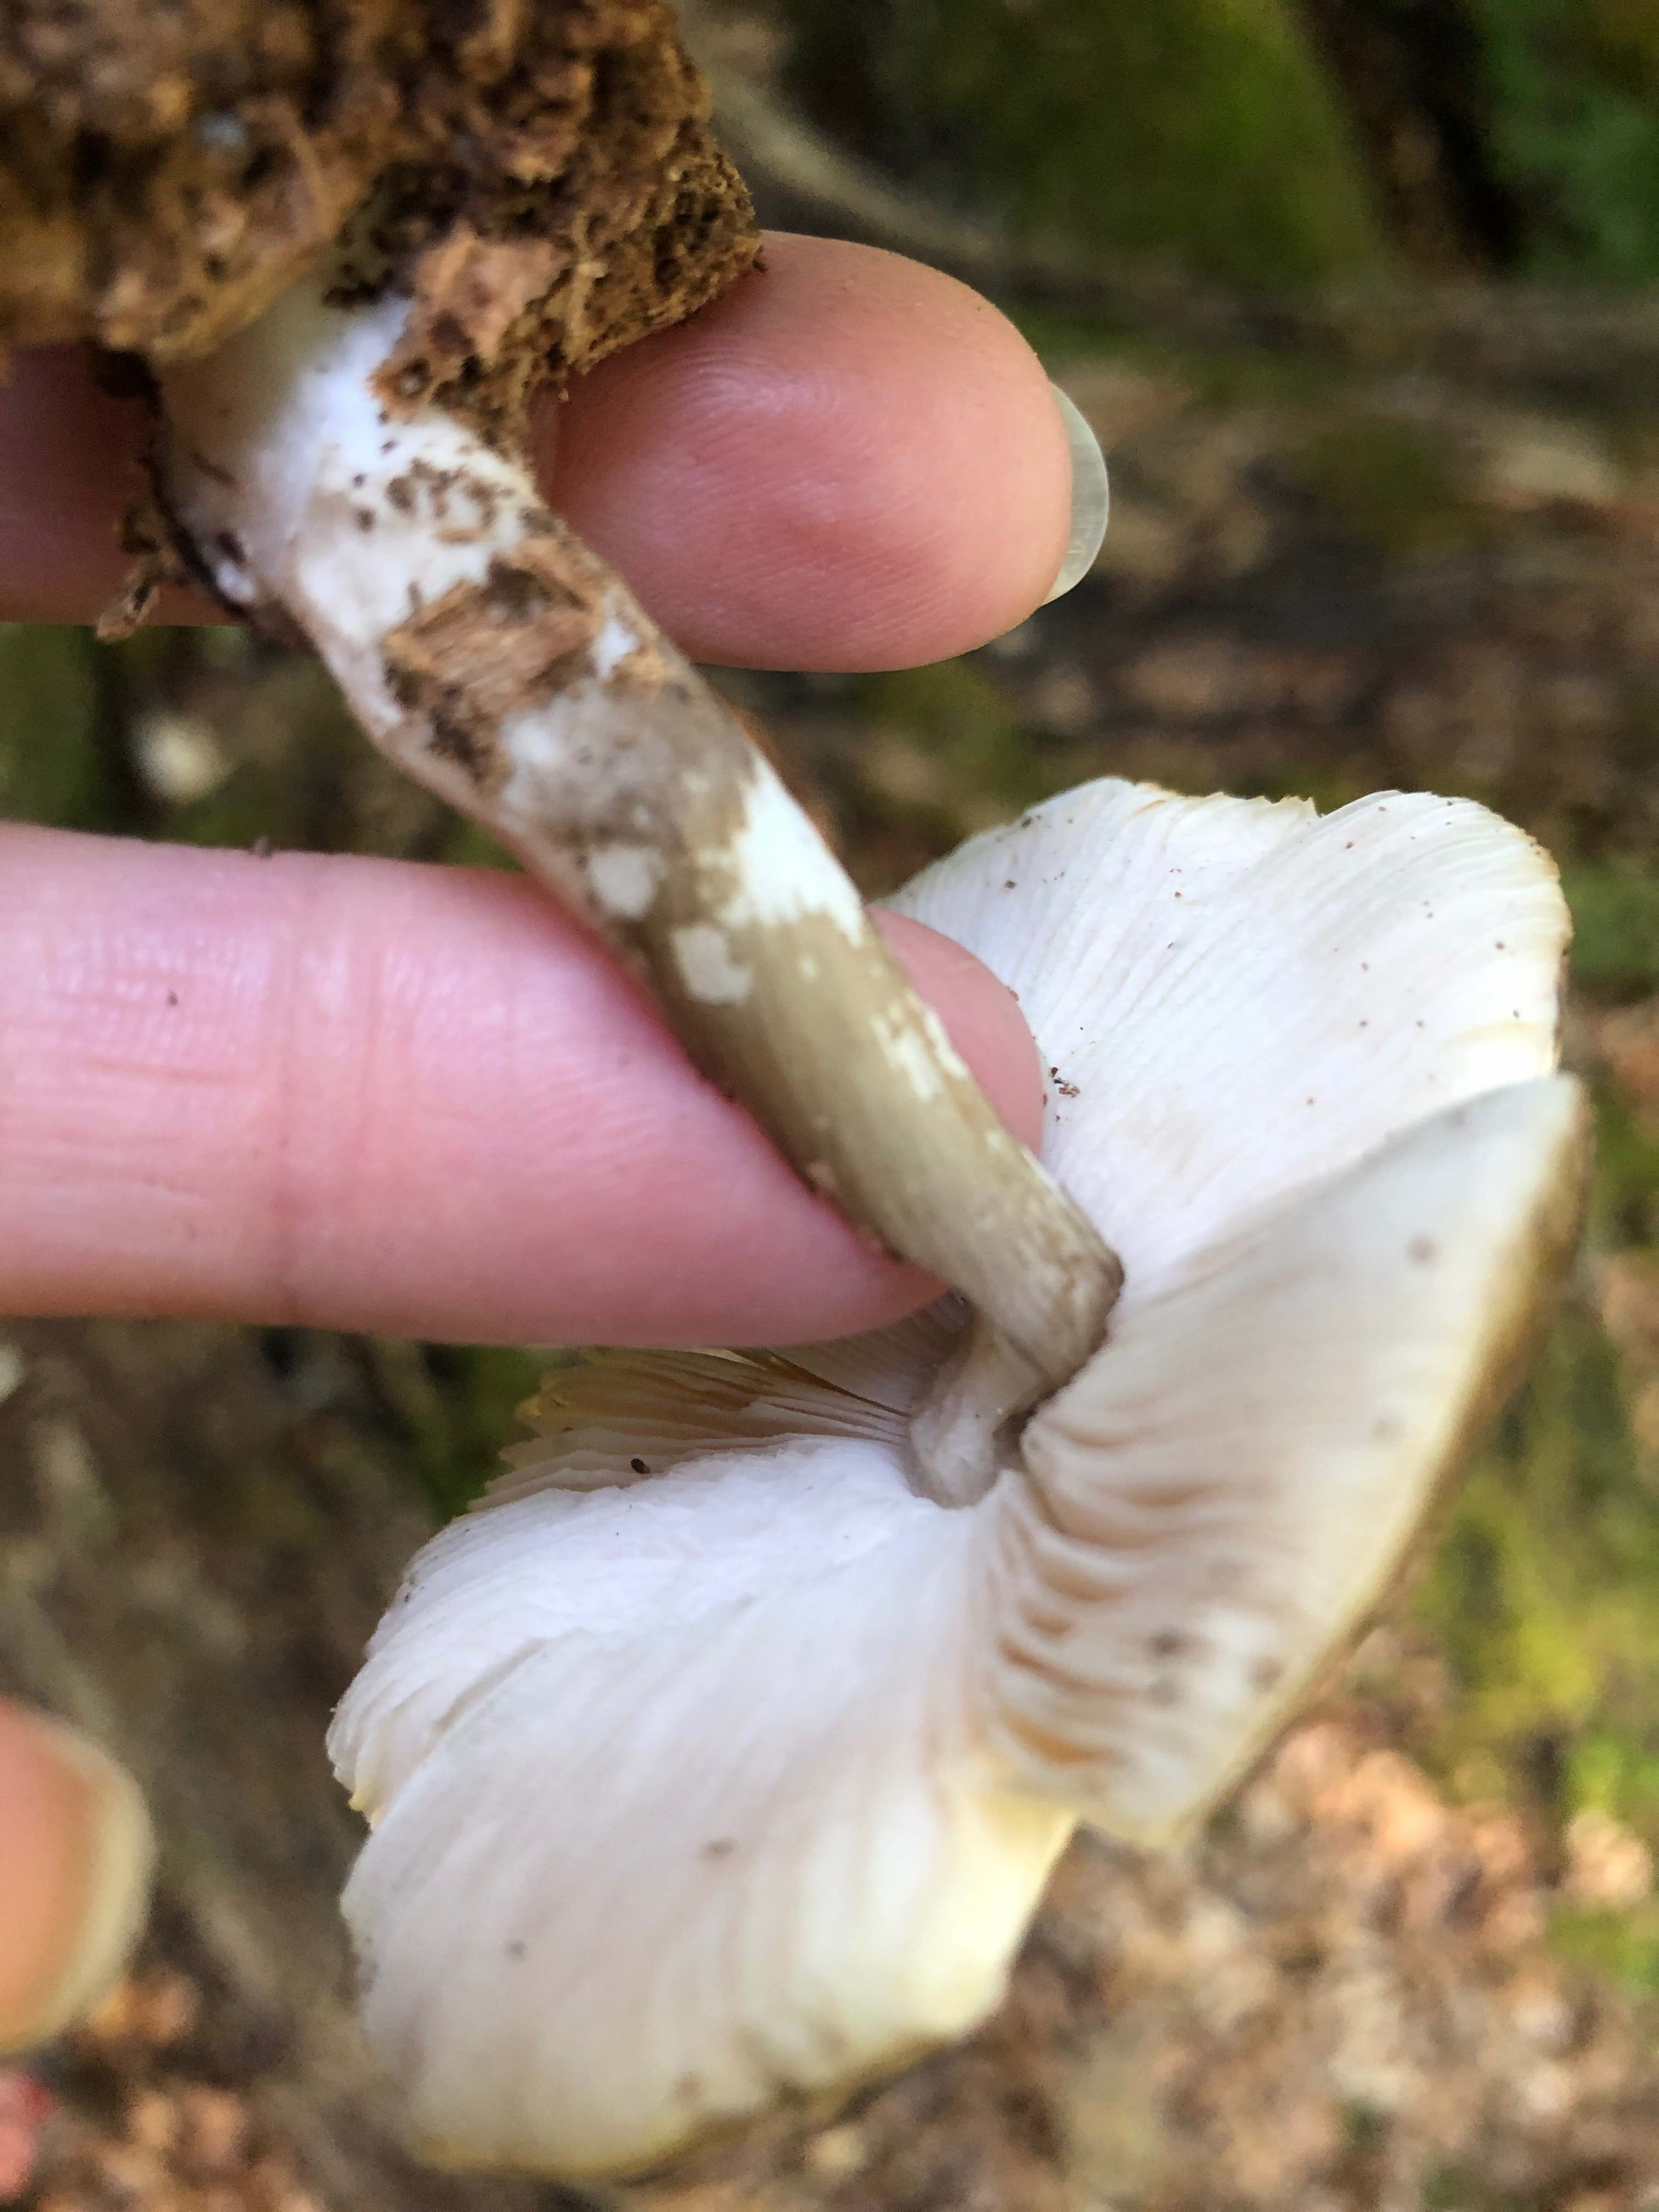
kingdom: Fungi
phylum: Basidiomycota
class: Agaricomycetes
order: Agaricales
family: Pluteaceae
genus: Pluteus
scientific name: Pluteus cervinus
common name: sodfarvet skærmhat
